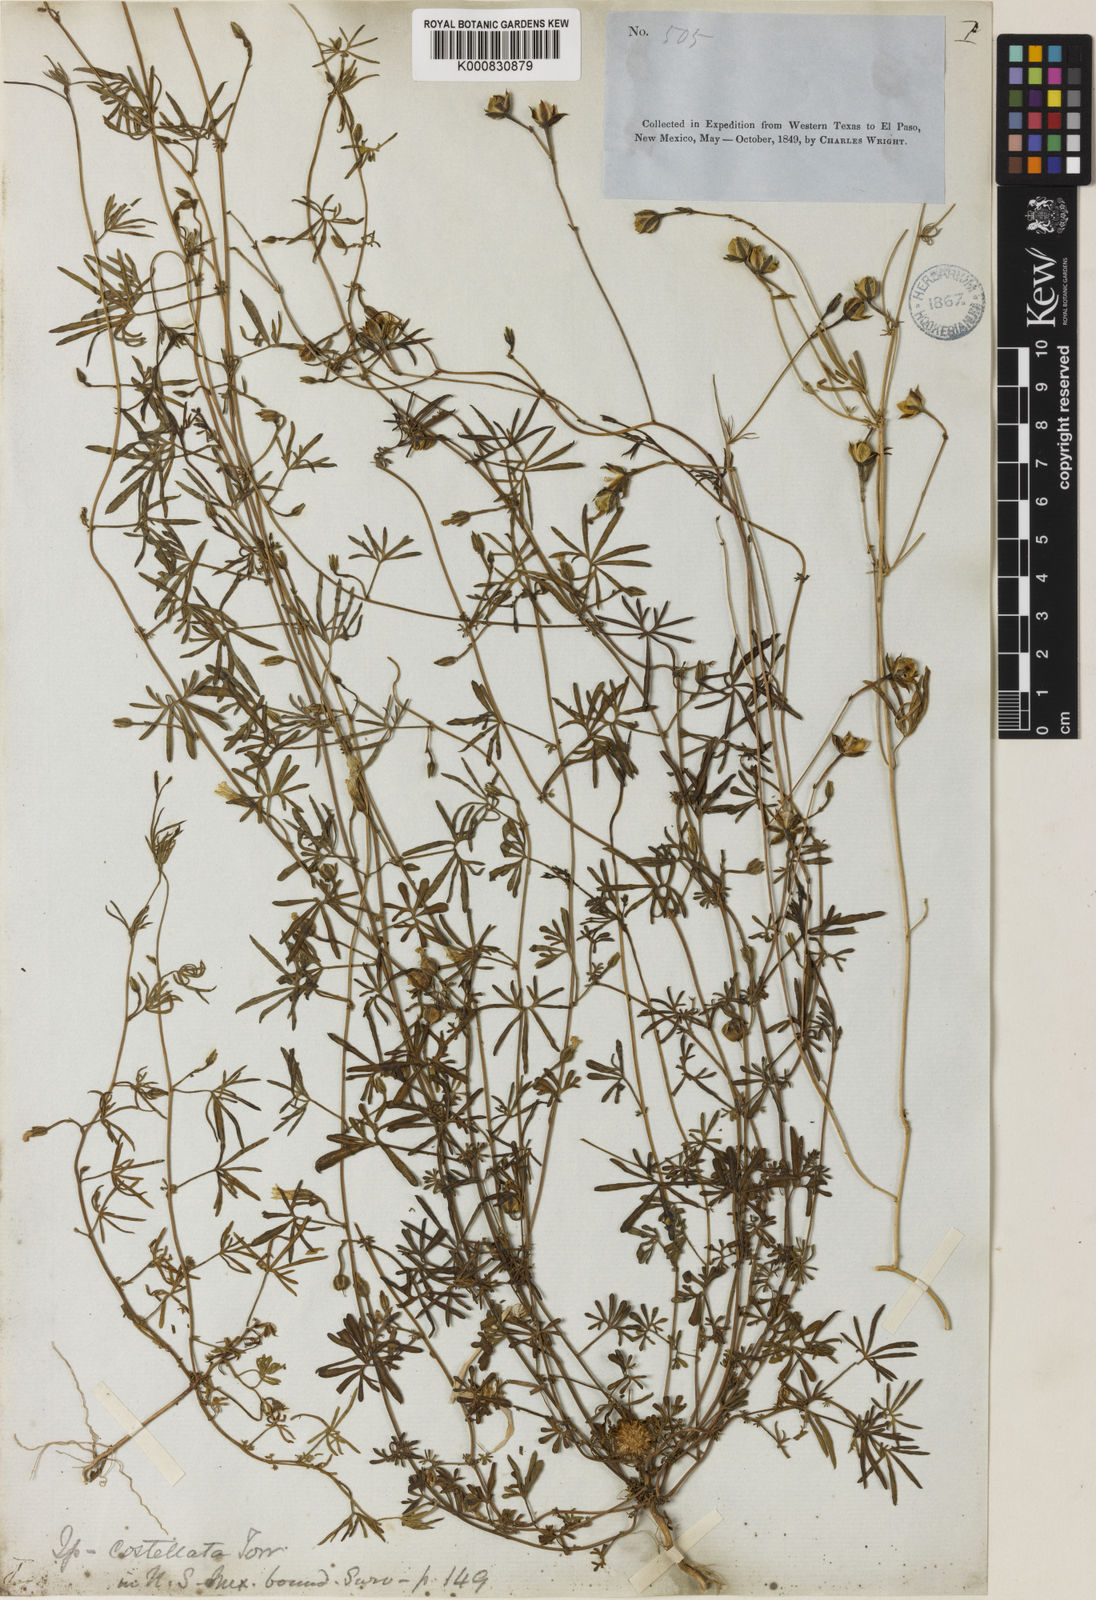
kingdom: Plantae
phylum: Tracheophyta
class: Magnoliopsida
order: Solanales
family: Convolvulaceae
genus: Ipomoea
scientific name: Ipomoea costellata
